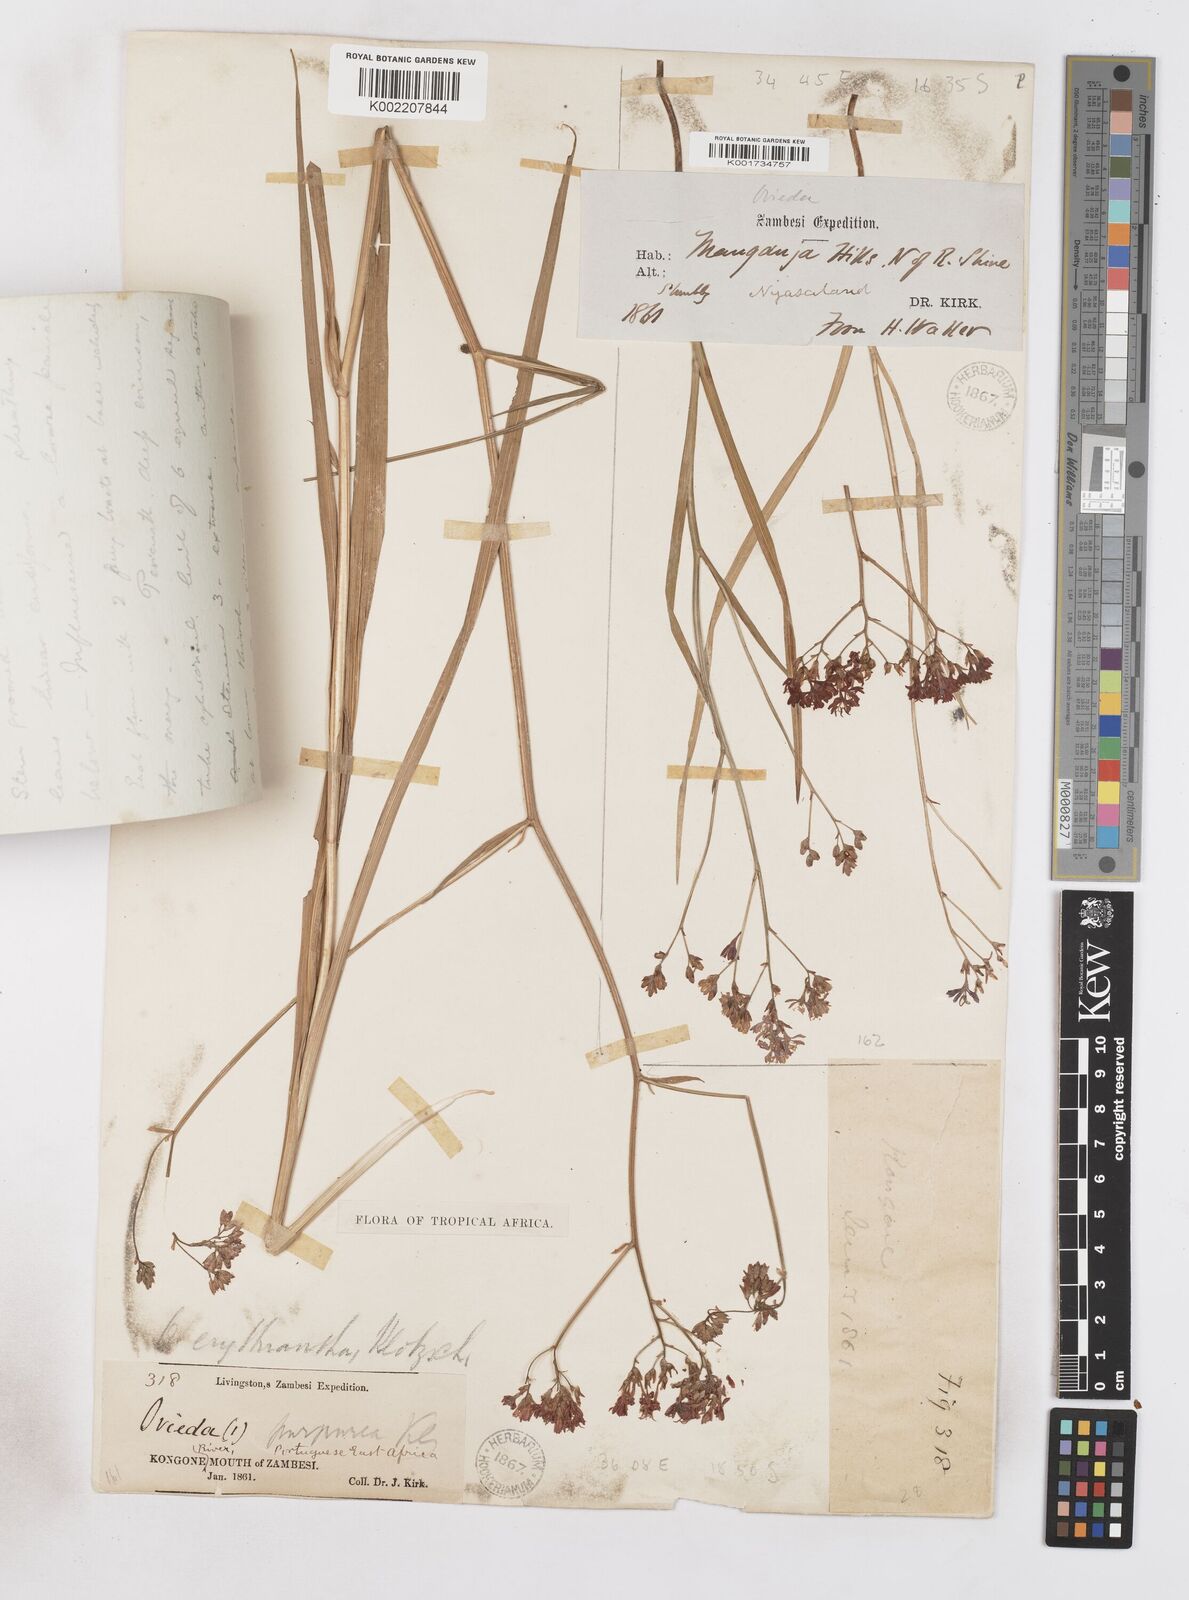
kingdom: Plantae
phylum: Tracheophyta
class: Liliopsida
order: Asparagales
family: Iridaceae
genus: Afrosolen
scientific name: Afrosolen erythranthus
